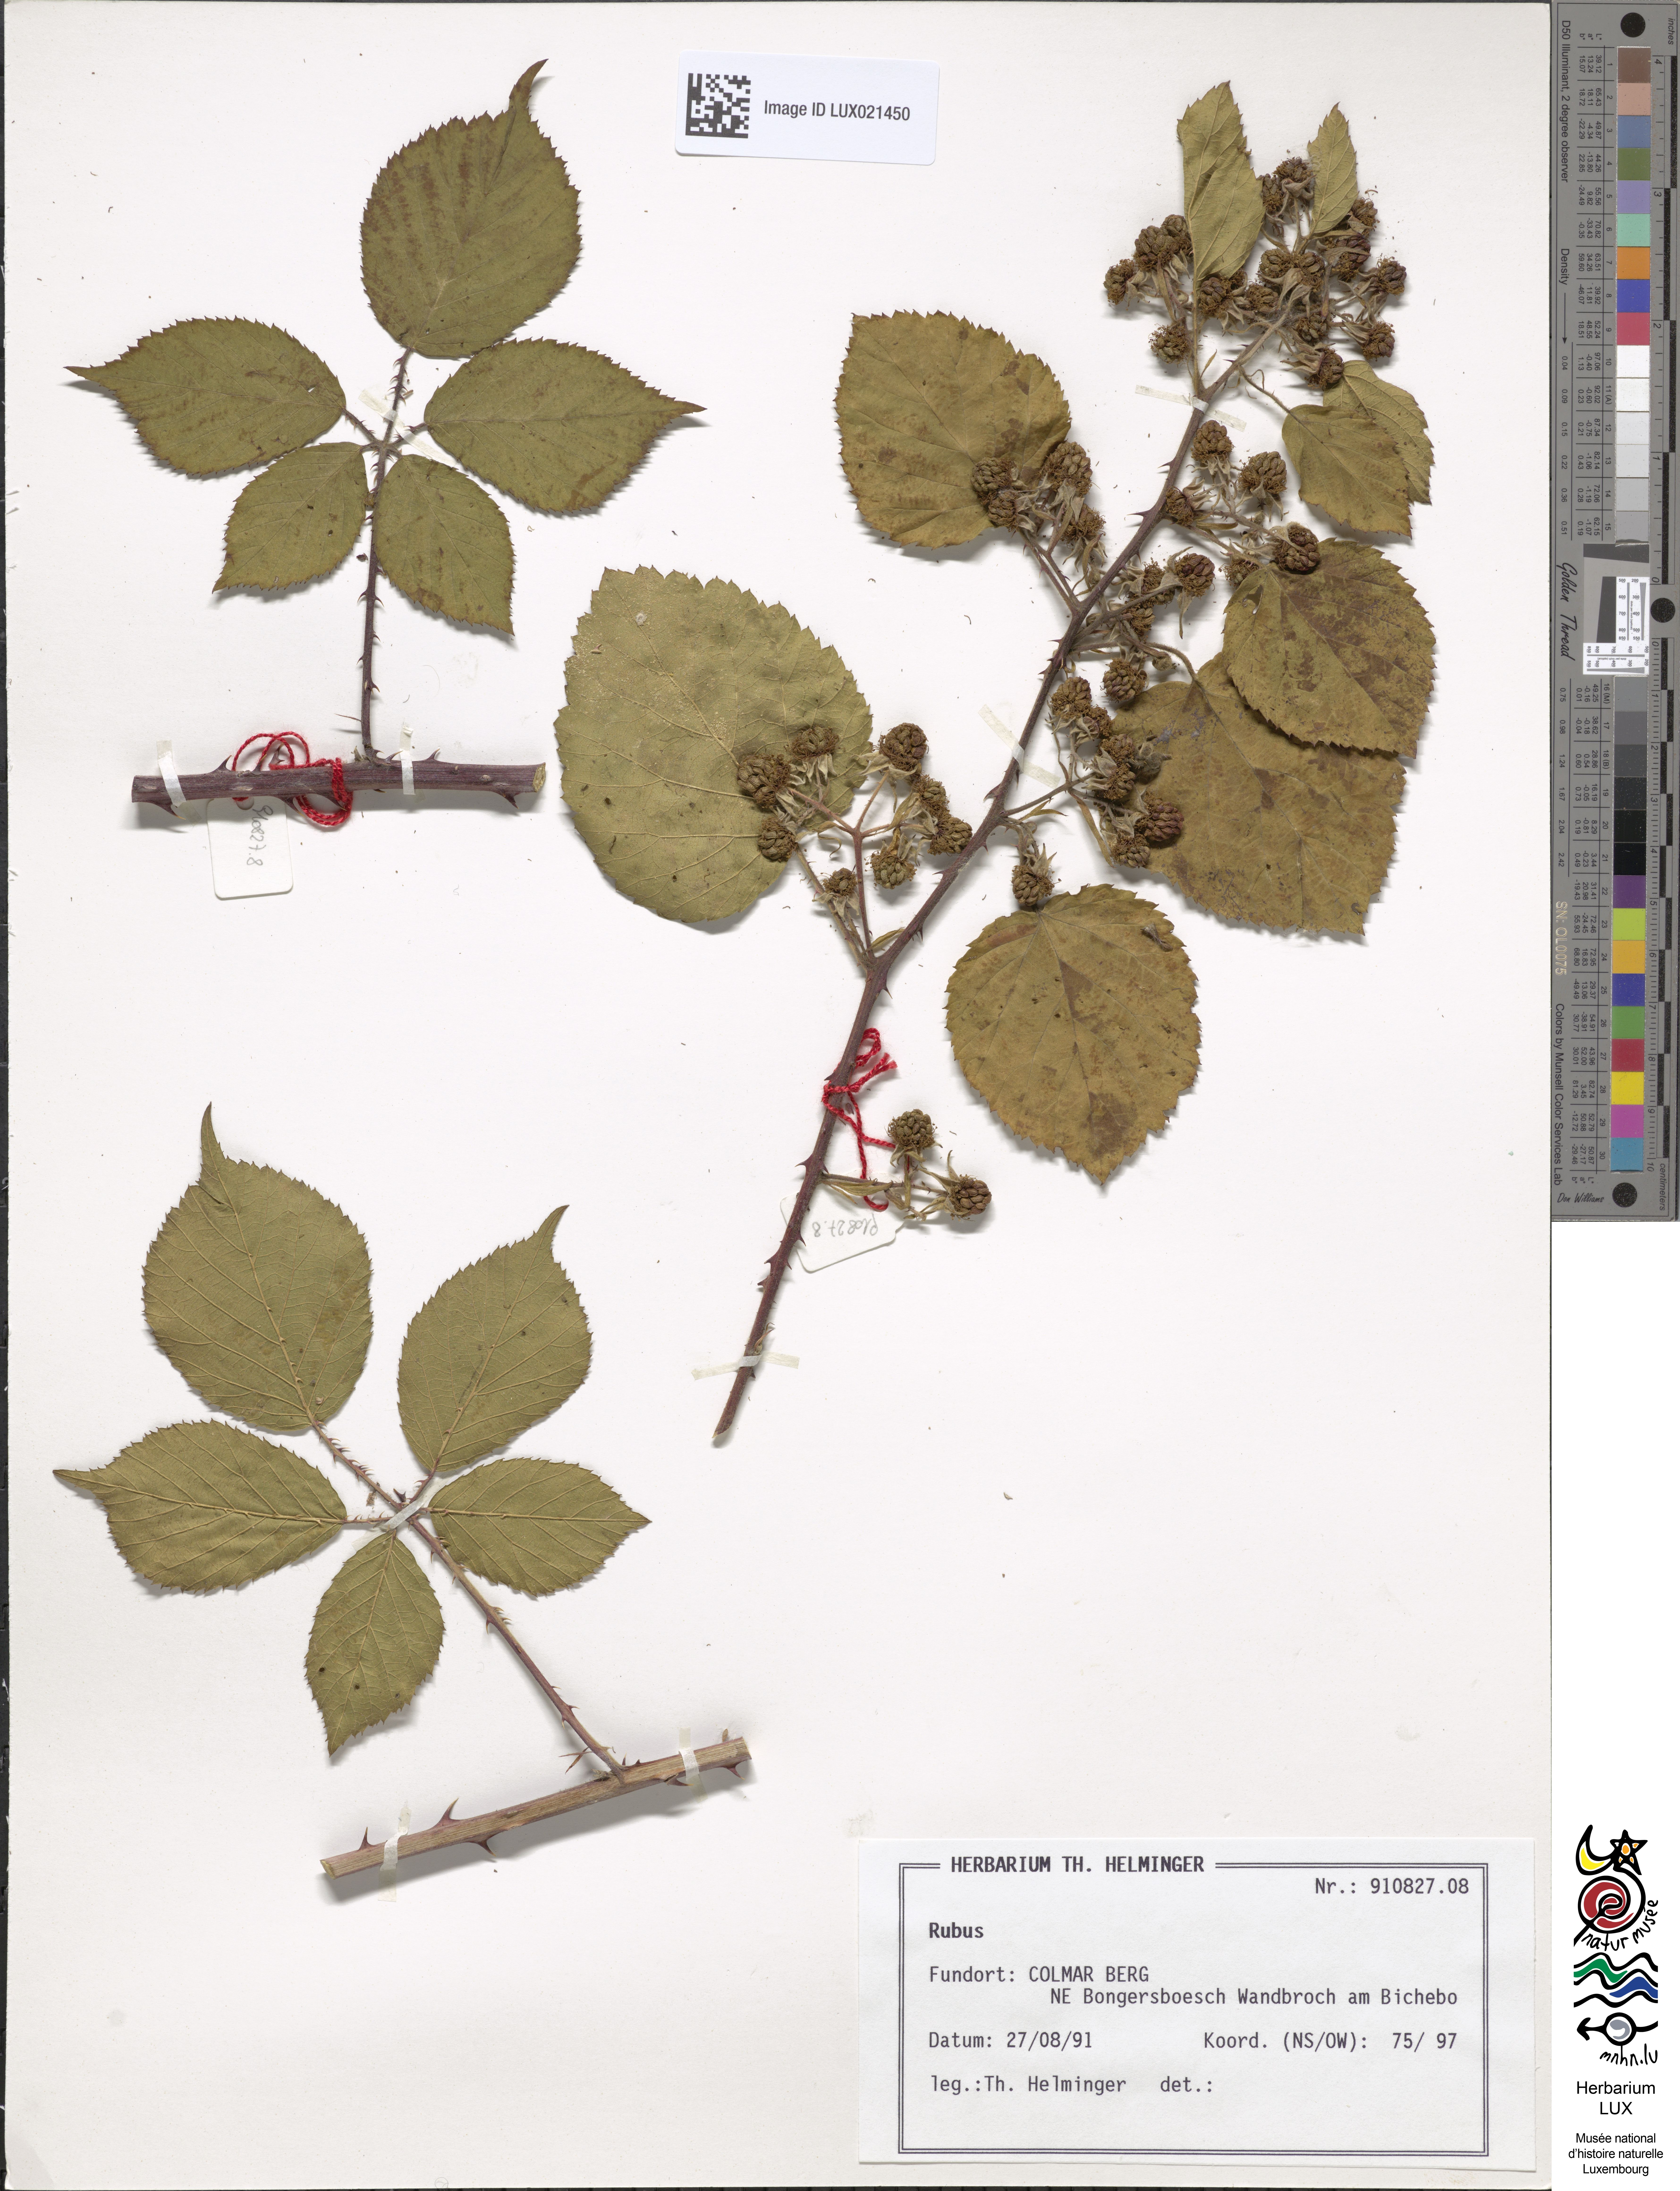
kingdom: Plantae
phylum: Tracheophyta
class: Magnoliopsida
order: Rosales
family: Rosaceae
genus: Rubus
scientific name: Rubus
